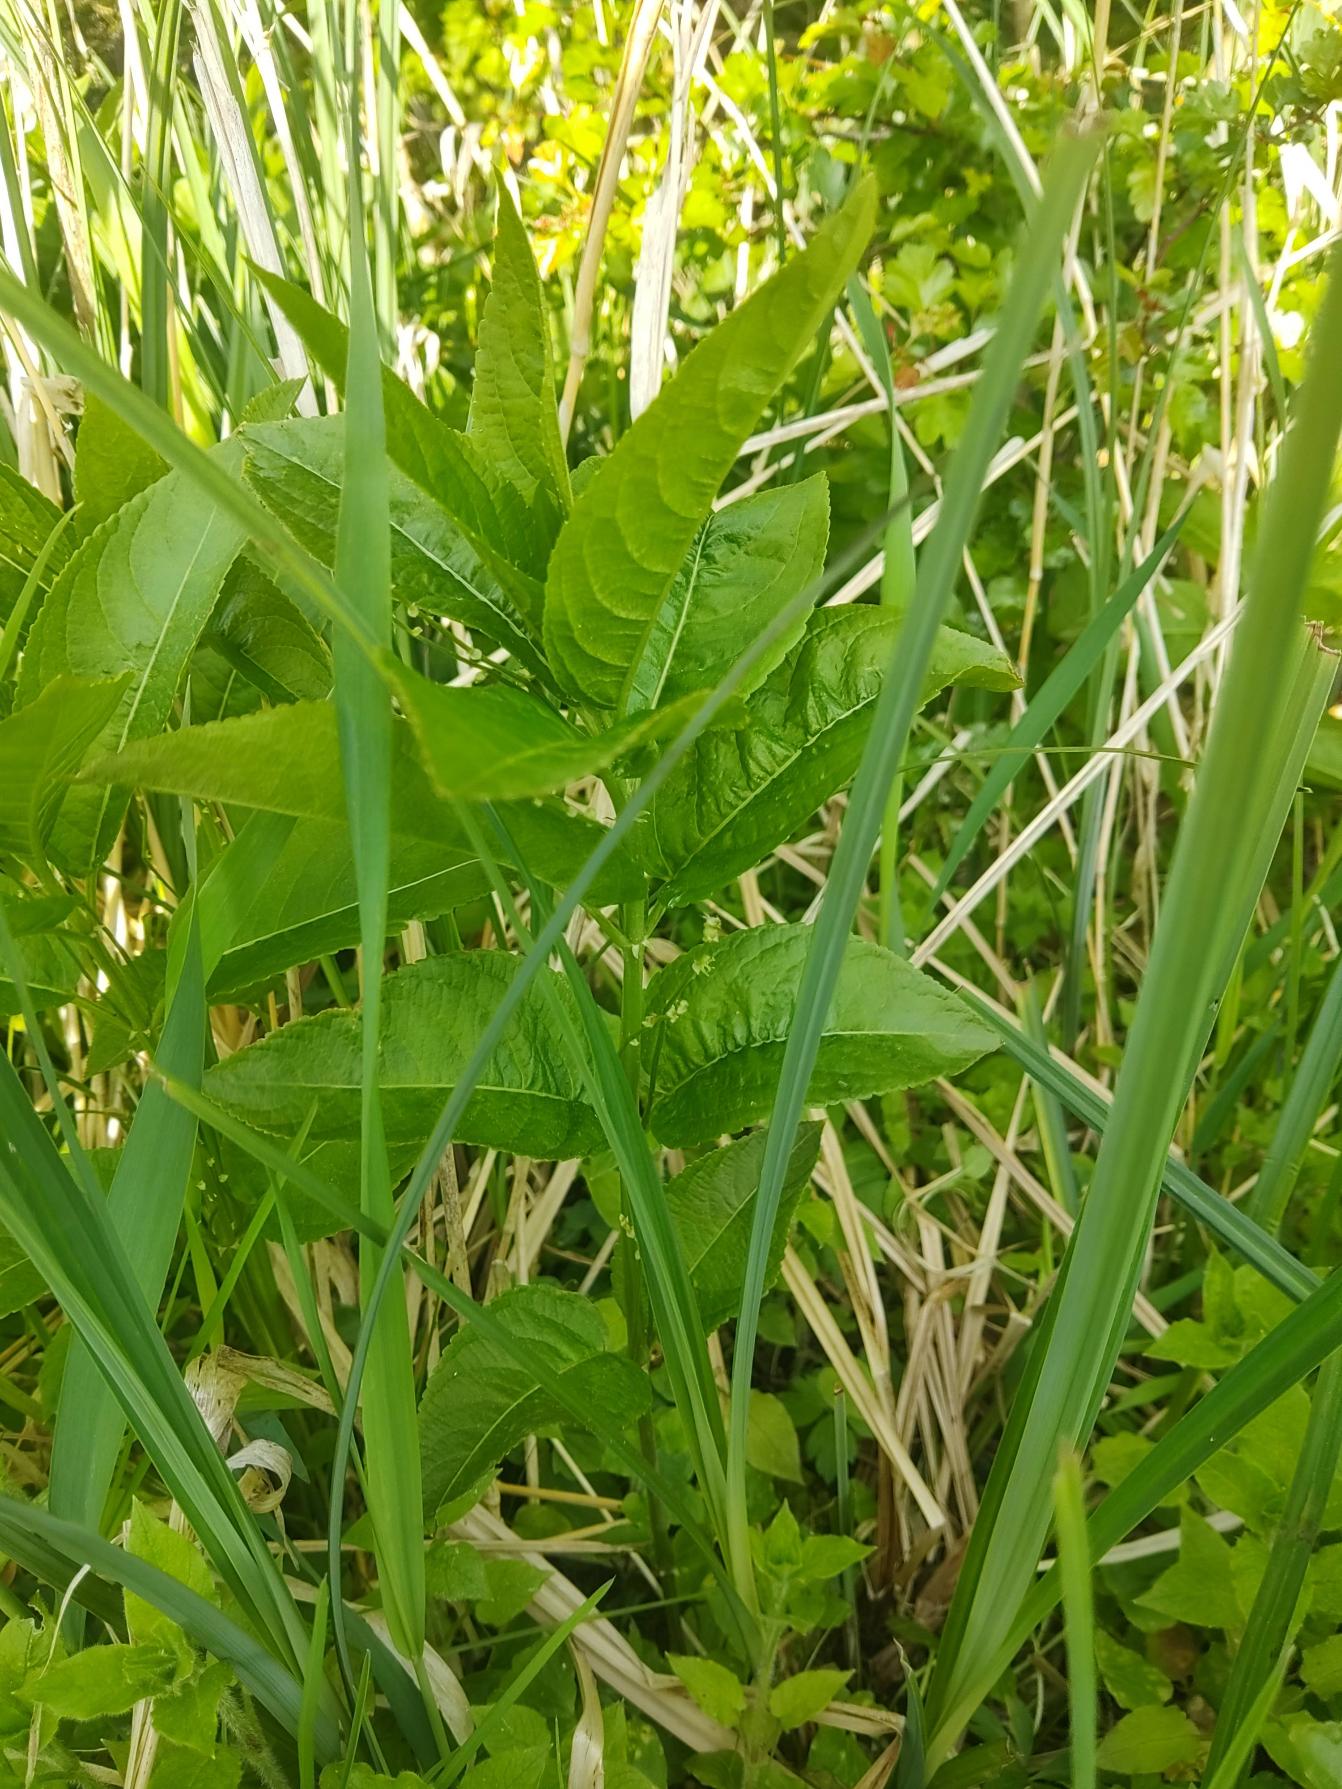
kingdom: Plantae
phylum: Tracheophyta
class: Magnoliopsida
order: Malpighiales
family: Euphorbiaceae
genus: Mercurialis
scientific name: Mercurialis perennis
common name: Almindelig bingelurt
